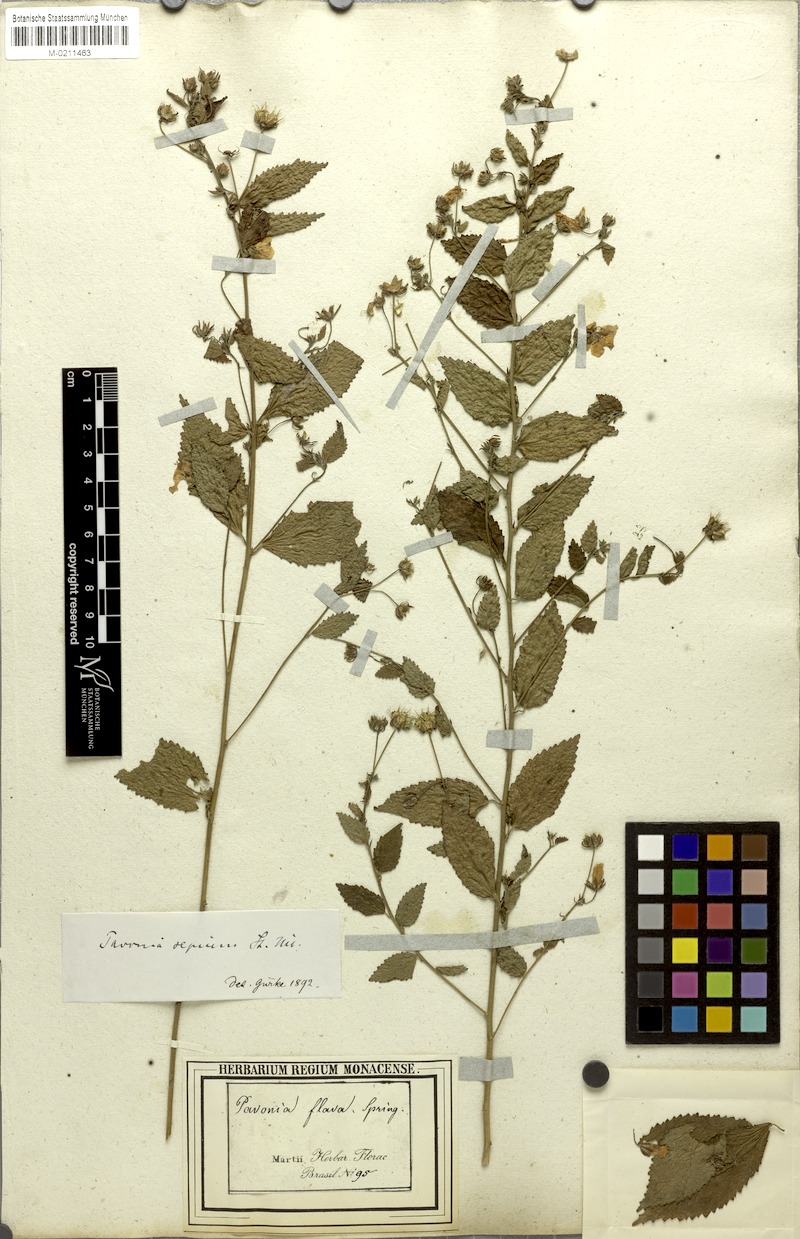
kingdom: Plantae
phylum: Tracheophyta
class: Magnoliopsida
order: Malvales
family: Malvaceae
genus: Pavonia
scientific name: Pavonia sepium
